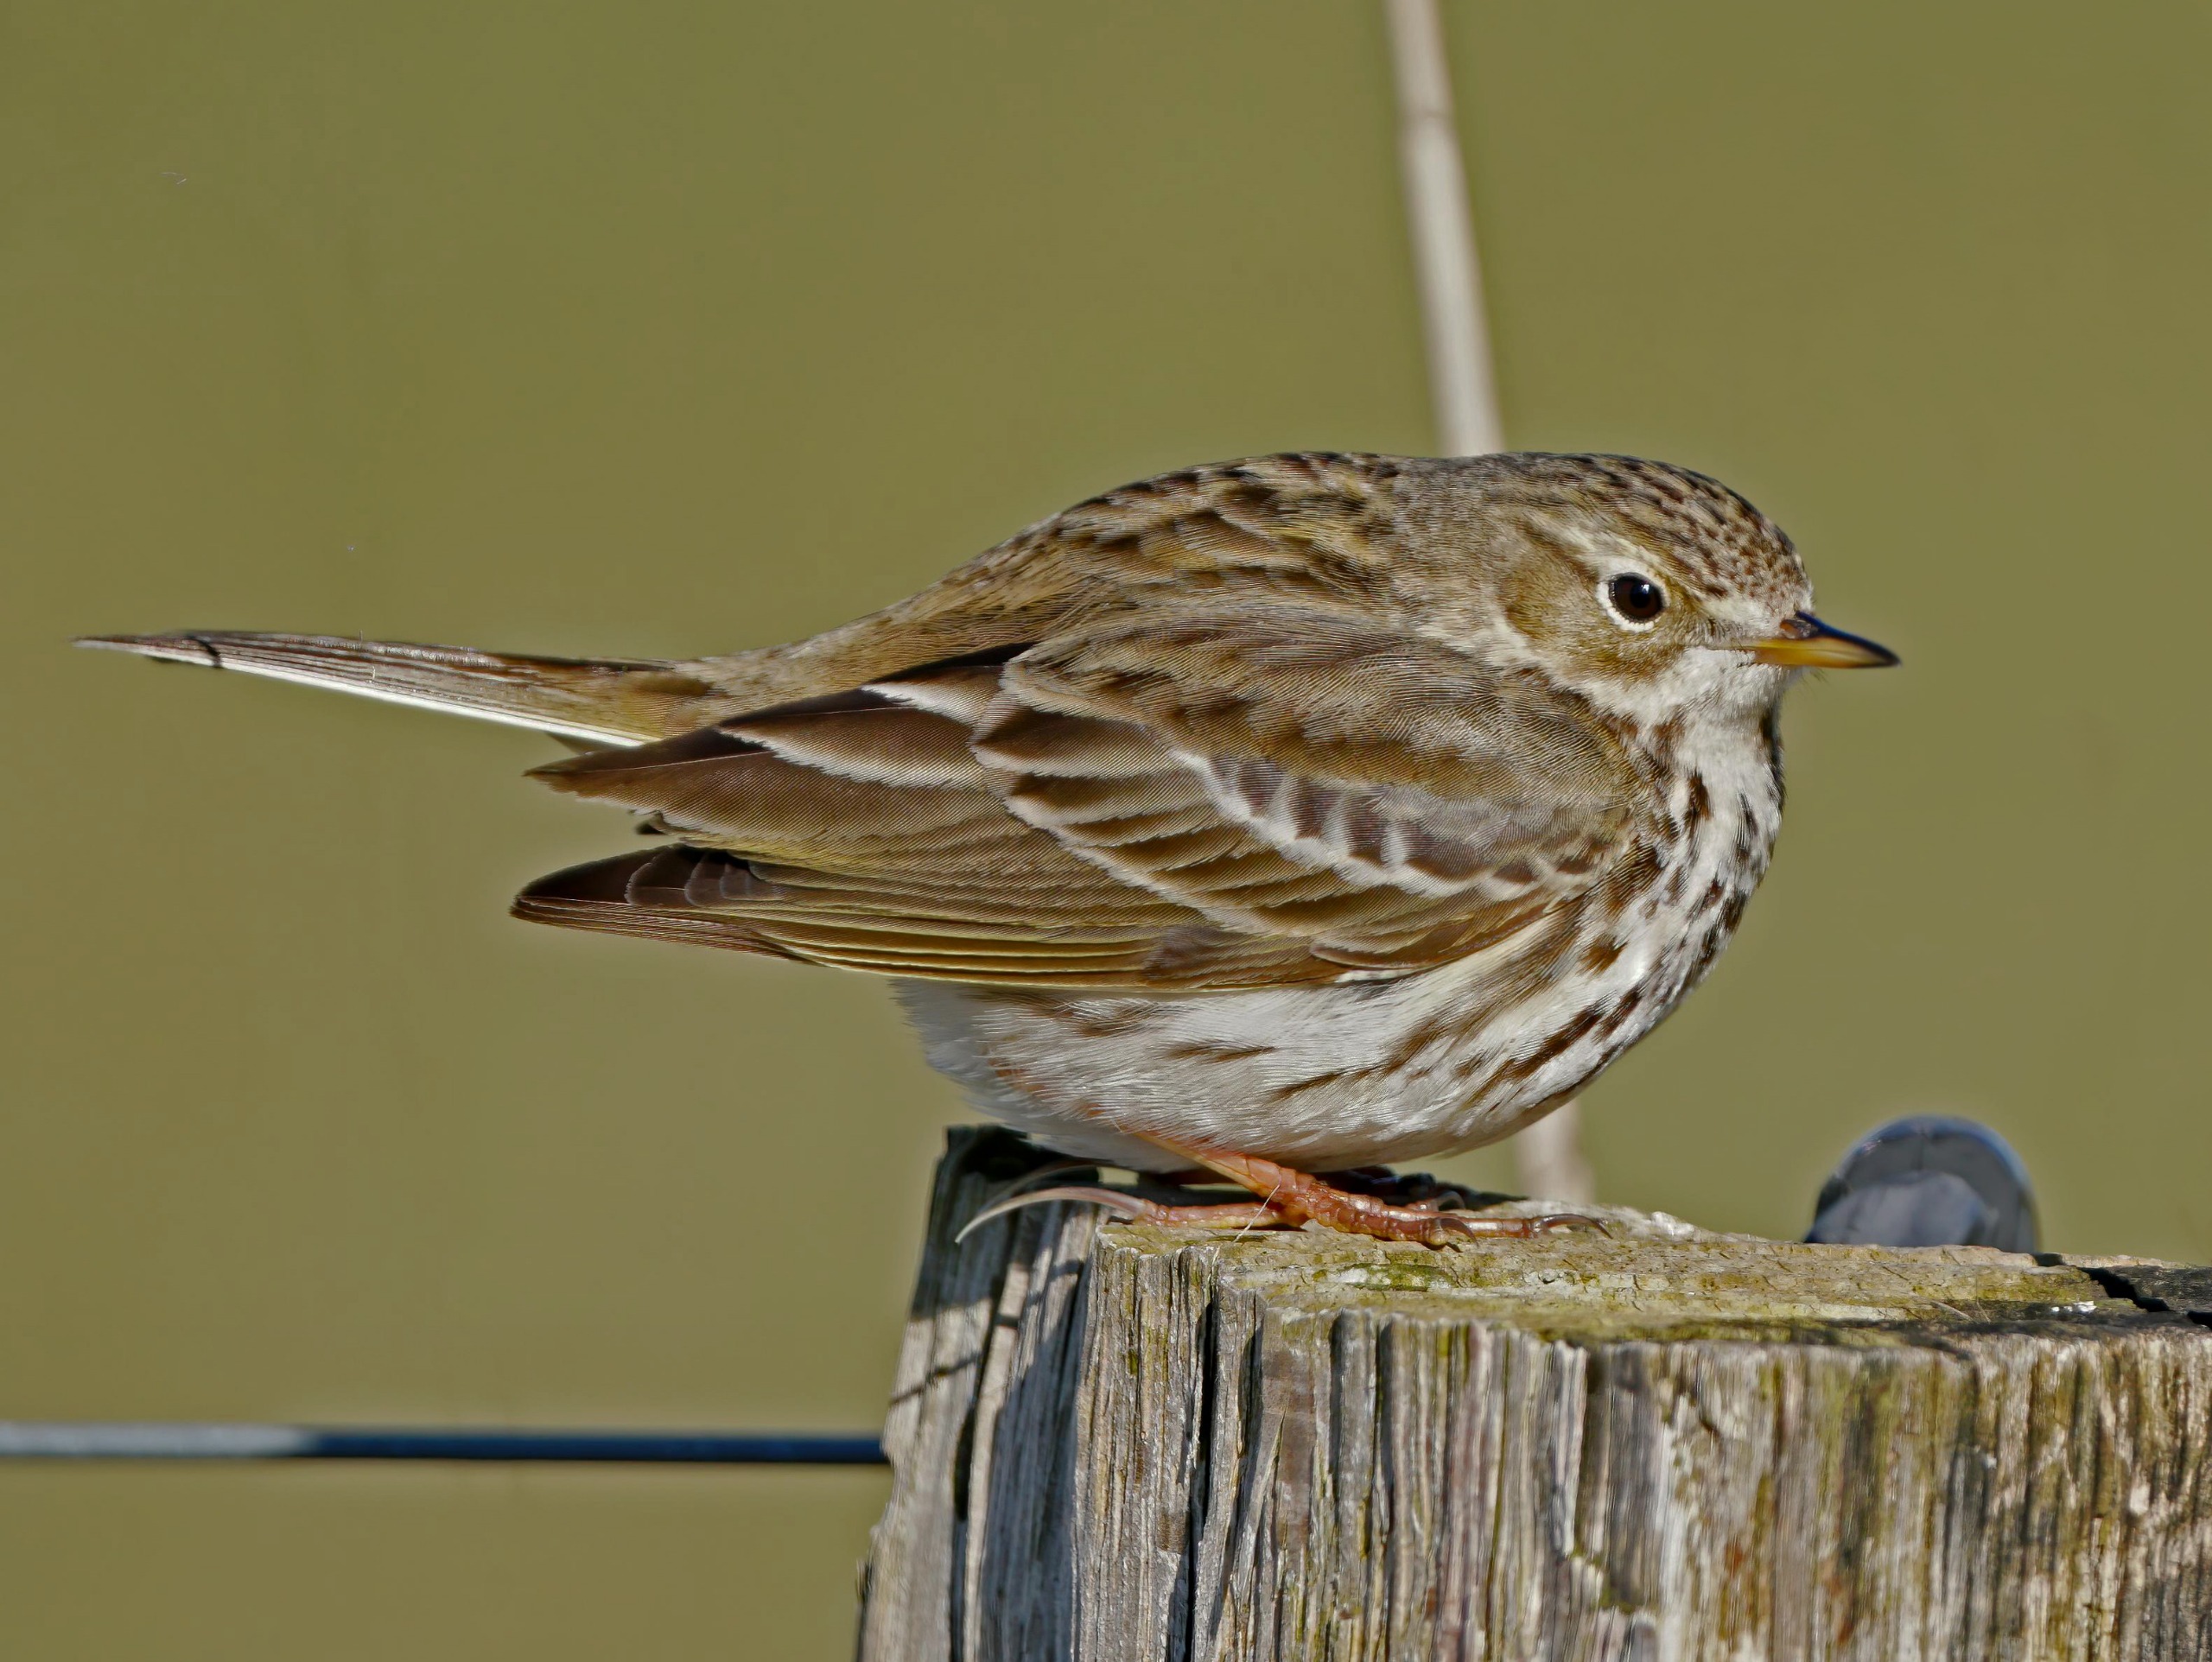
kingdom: Animalia
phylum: Chordata
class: Aves
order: Passeriformes
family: Motacillidae
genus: Anthus
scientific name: Anthus pratensis
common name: Engpiber
